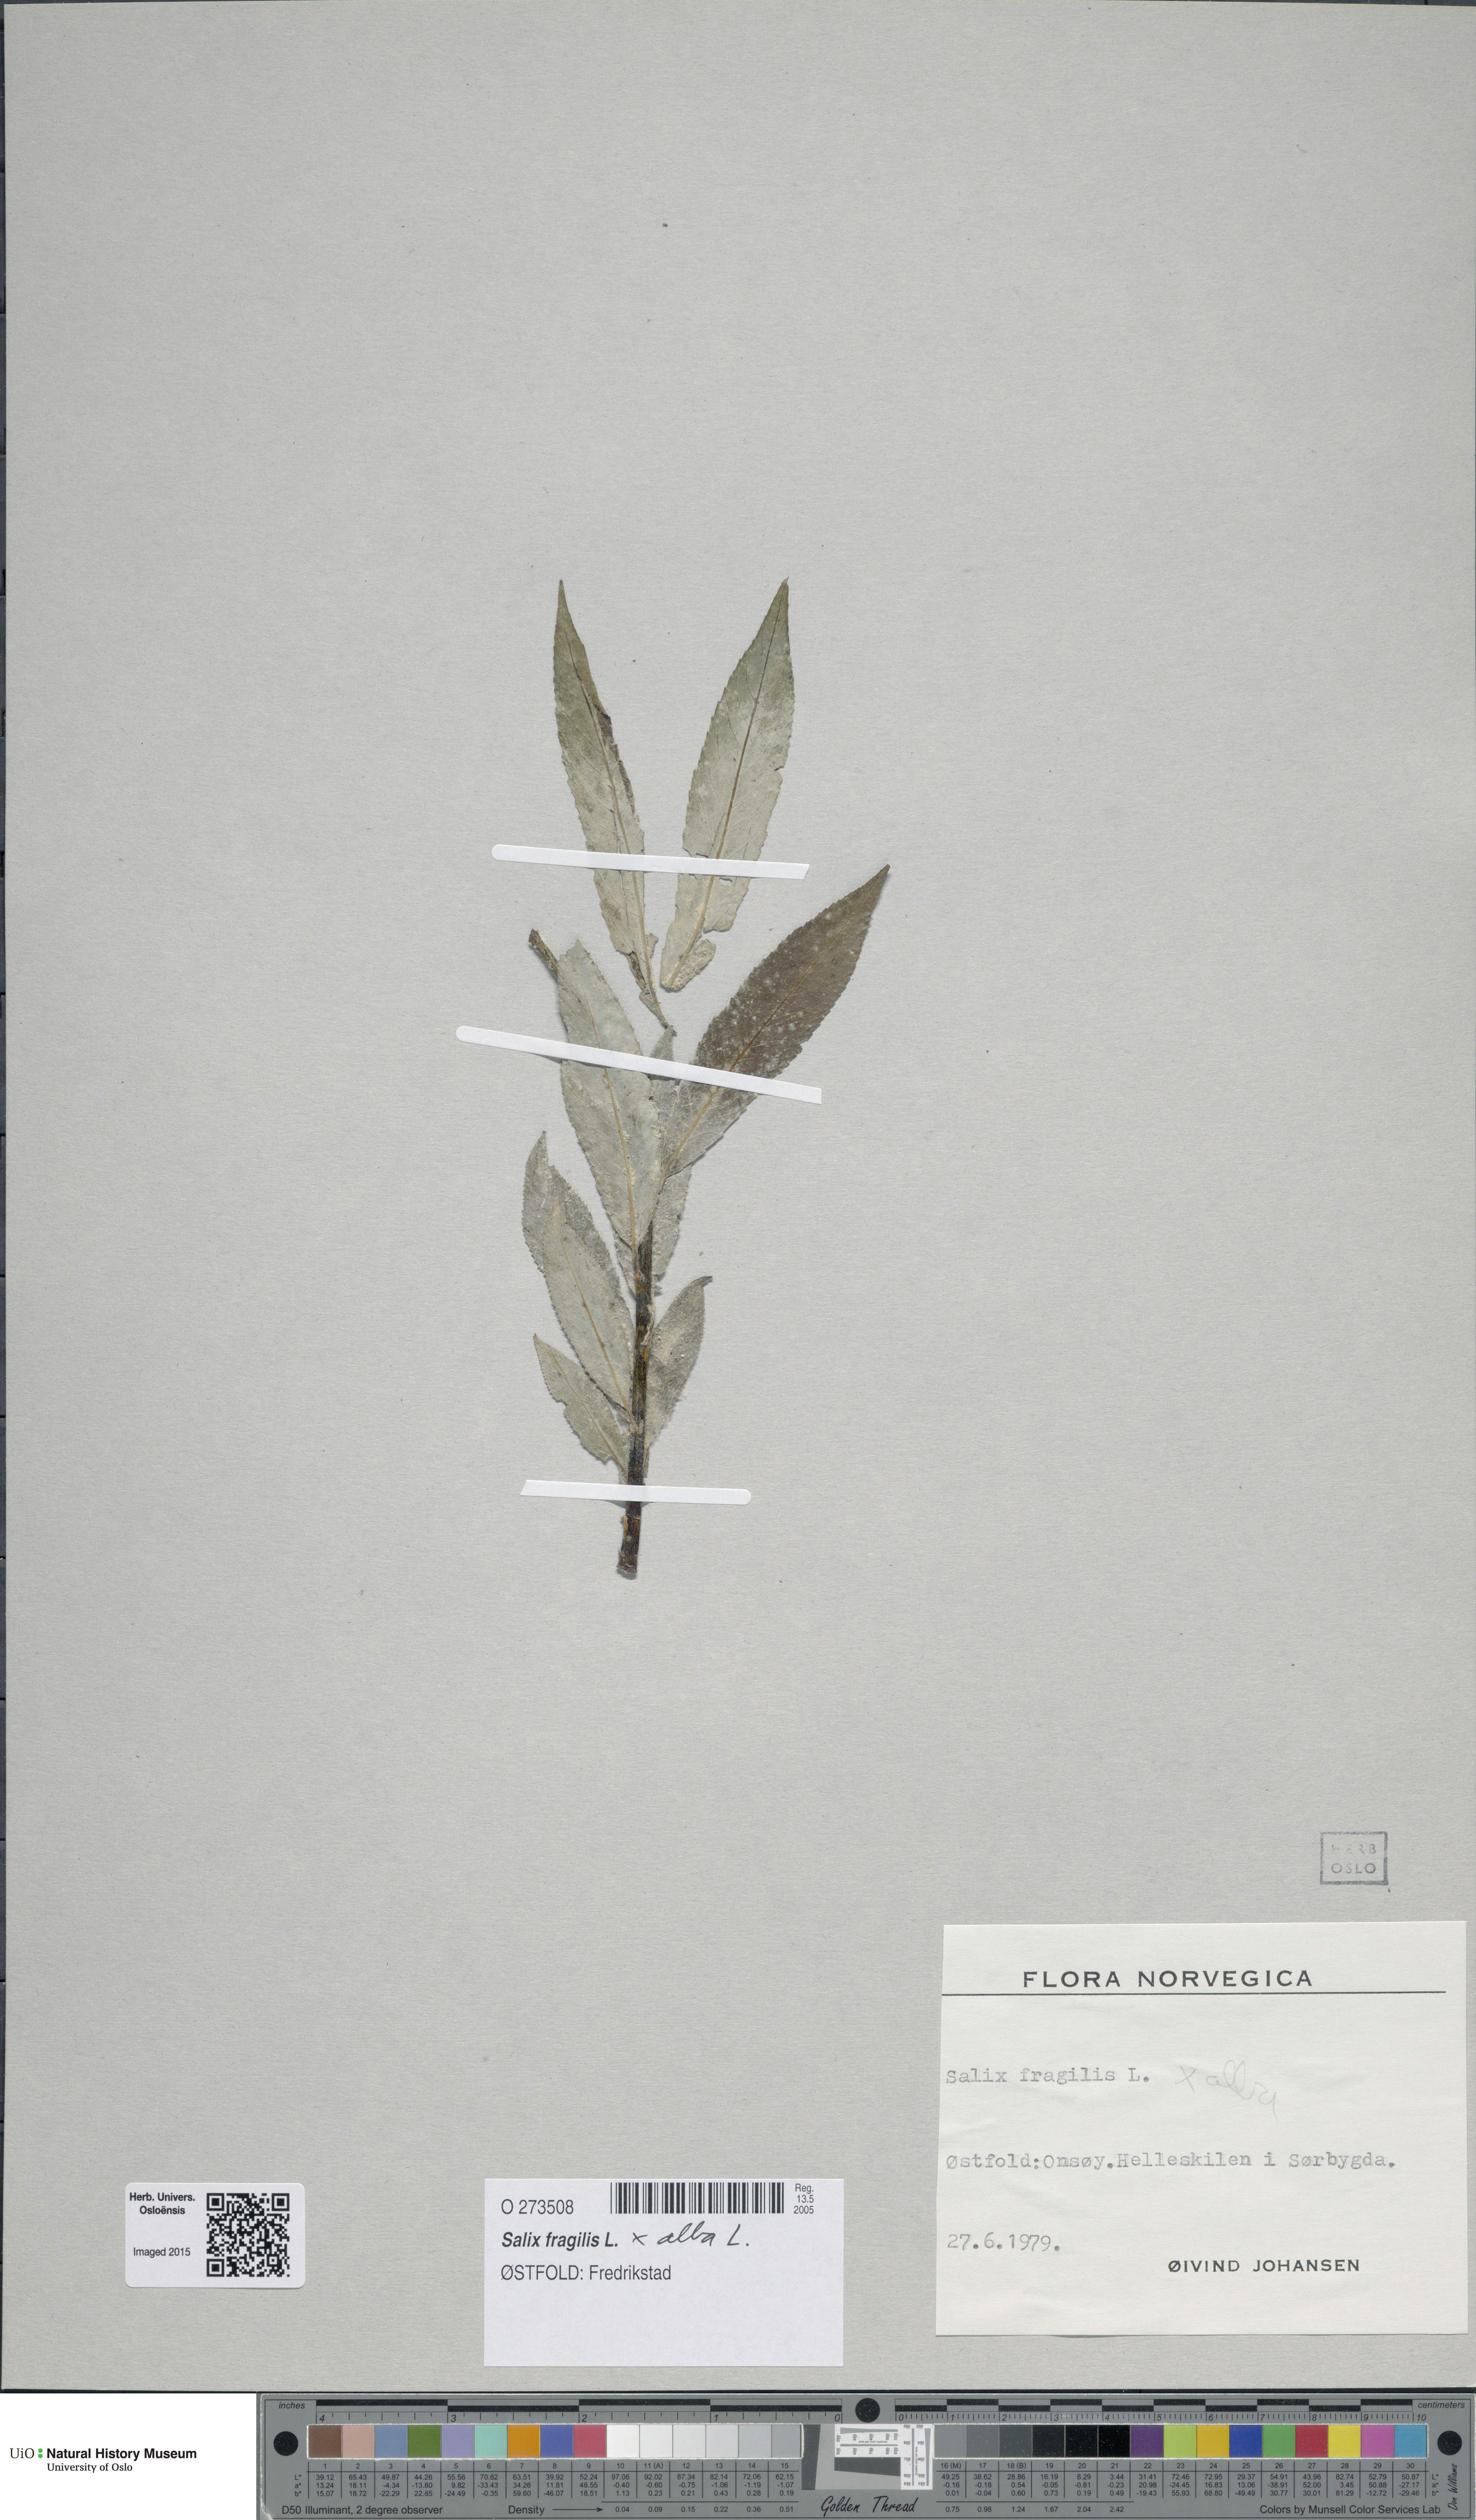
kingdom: Plantae
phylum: Tracheophyta
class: Magnoliopsida
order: Malpighiales
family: Salicaceae
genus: Salix
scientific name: Salix
